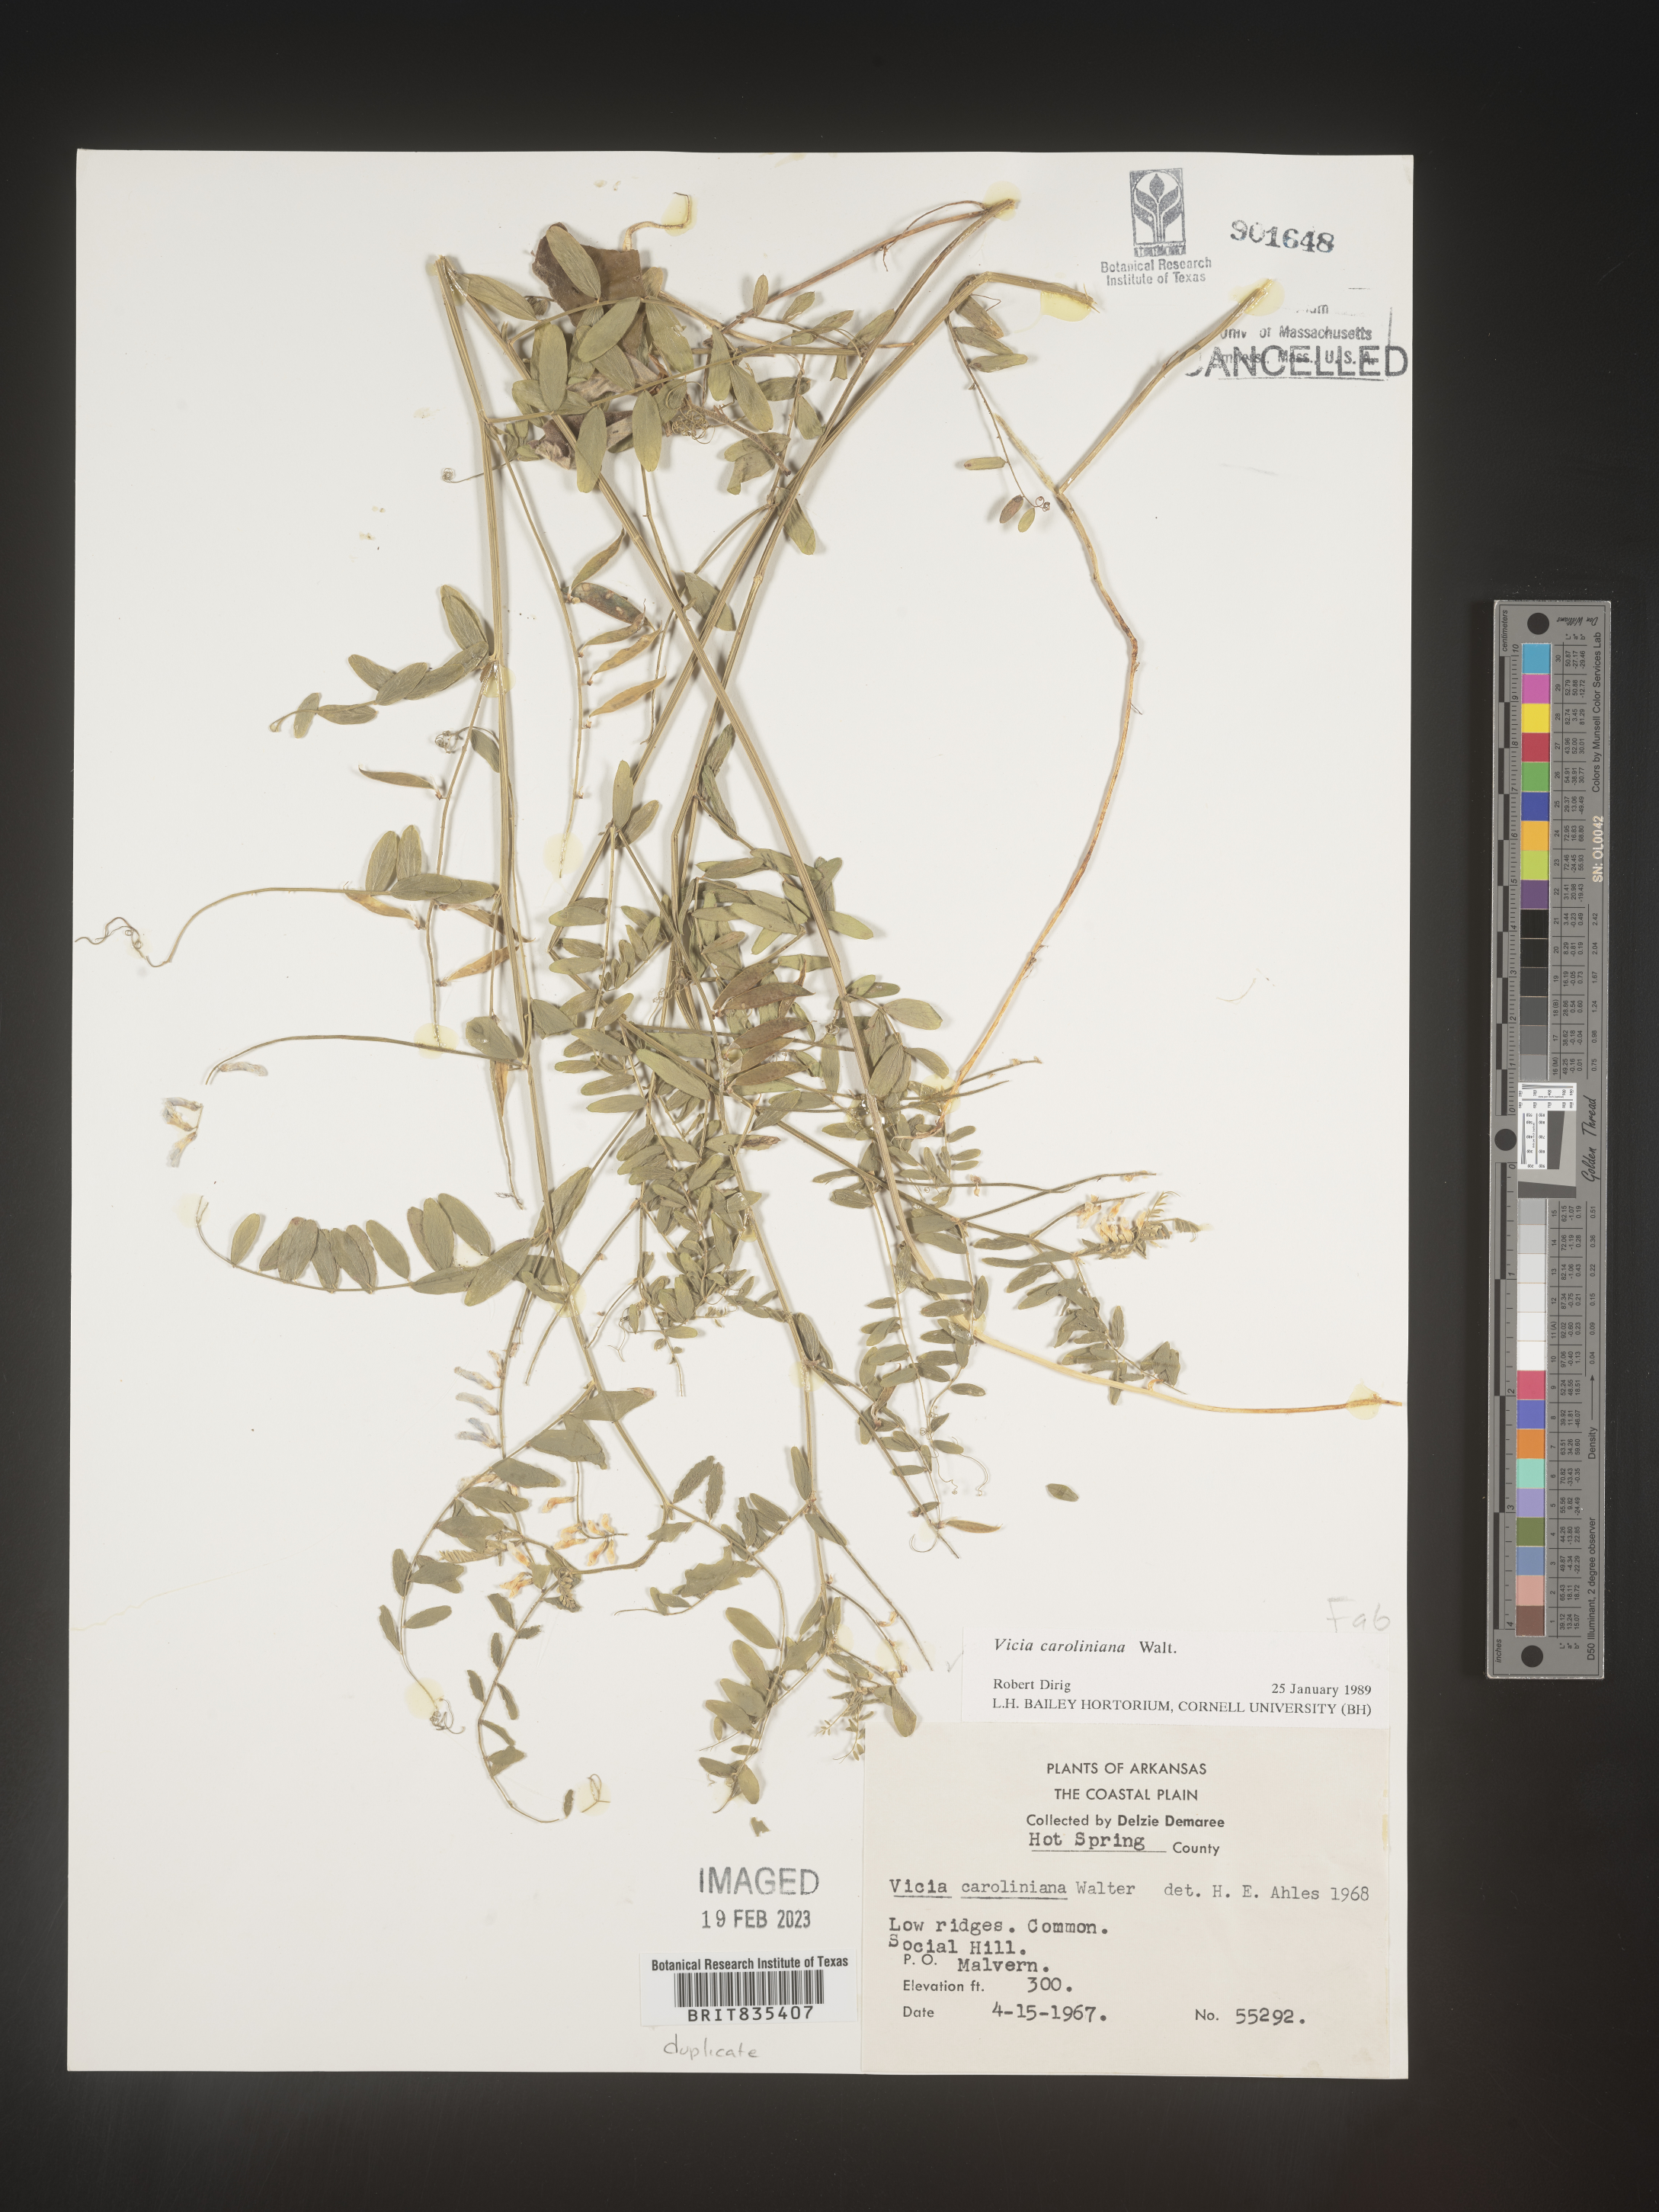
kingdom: Plantae
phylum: Tracheophyta
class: Magnoliopsida
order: Fabales
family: Fabaceae
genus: Vicia
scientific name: Vicia caroliniana
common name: Carolina vetch
